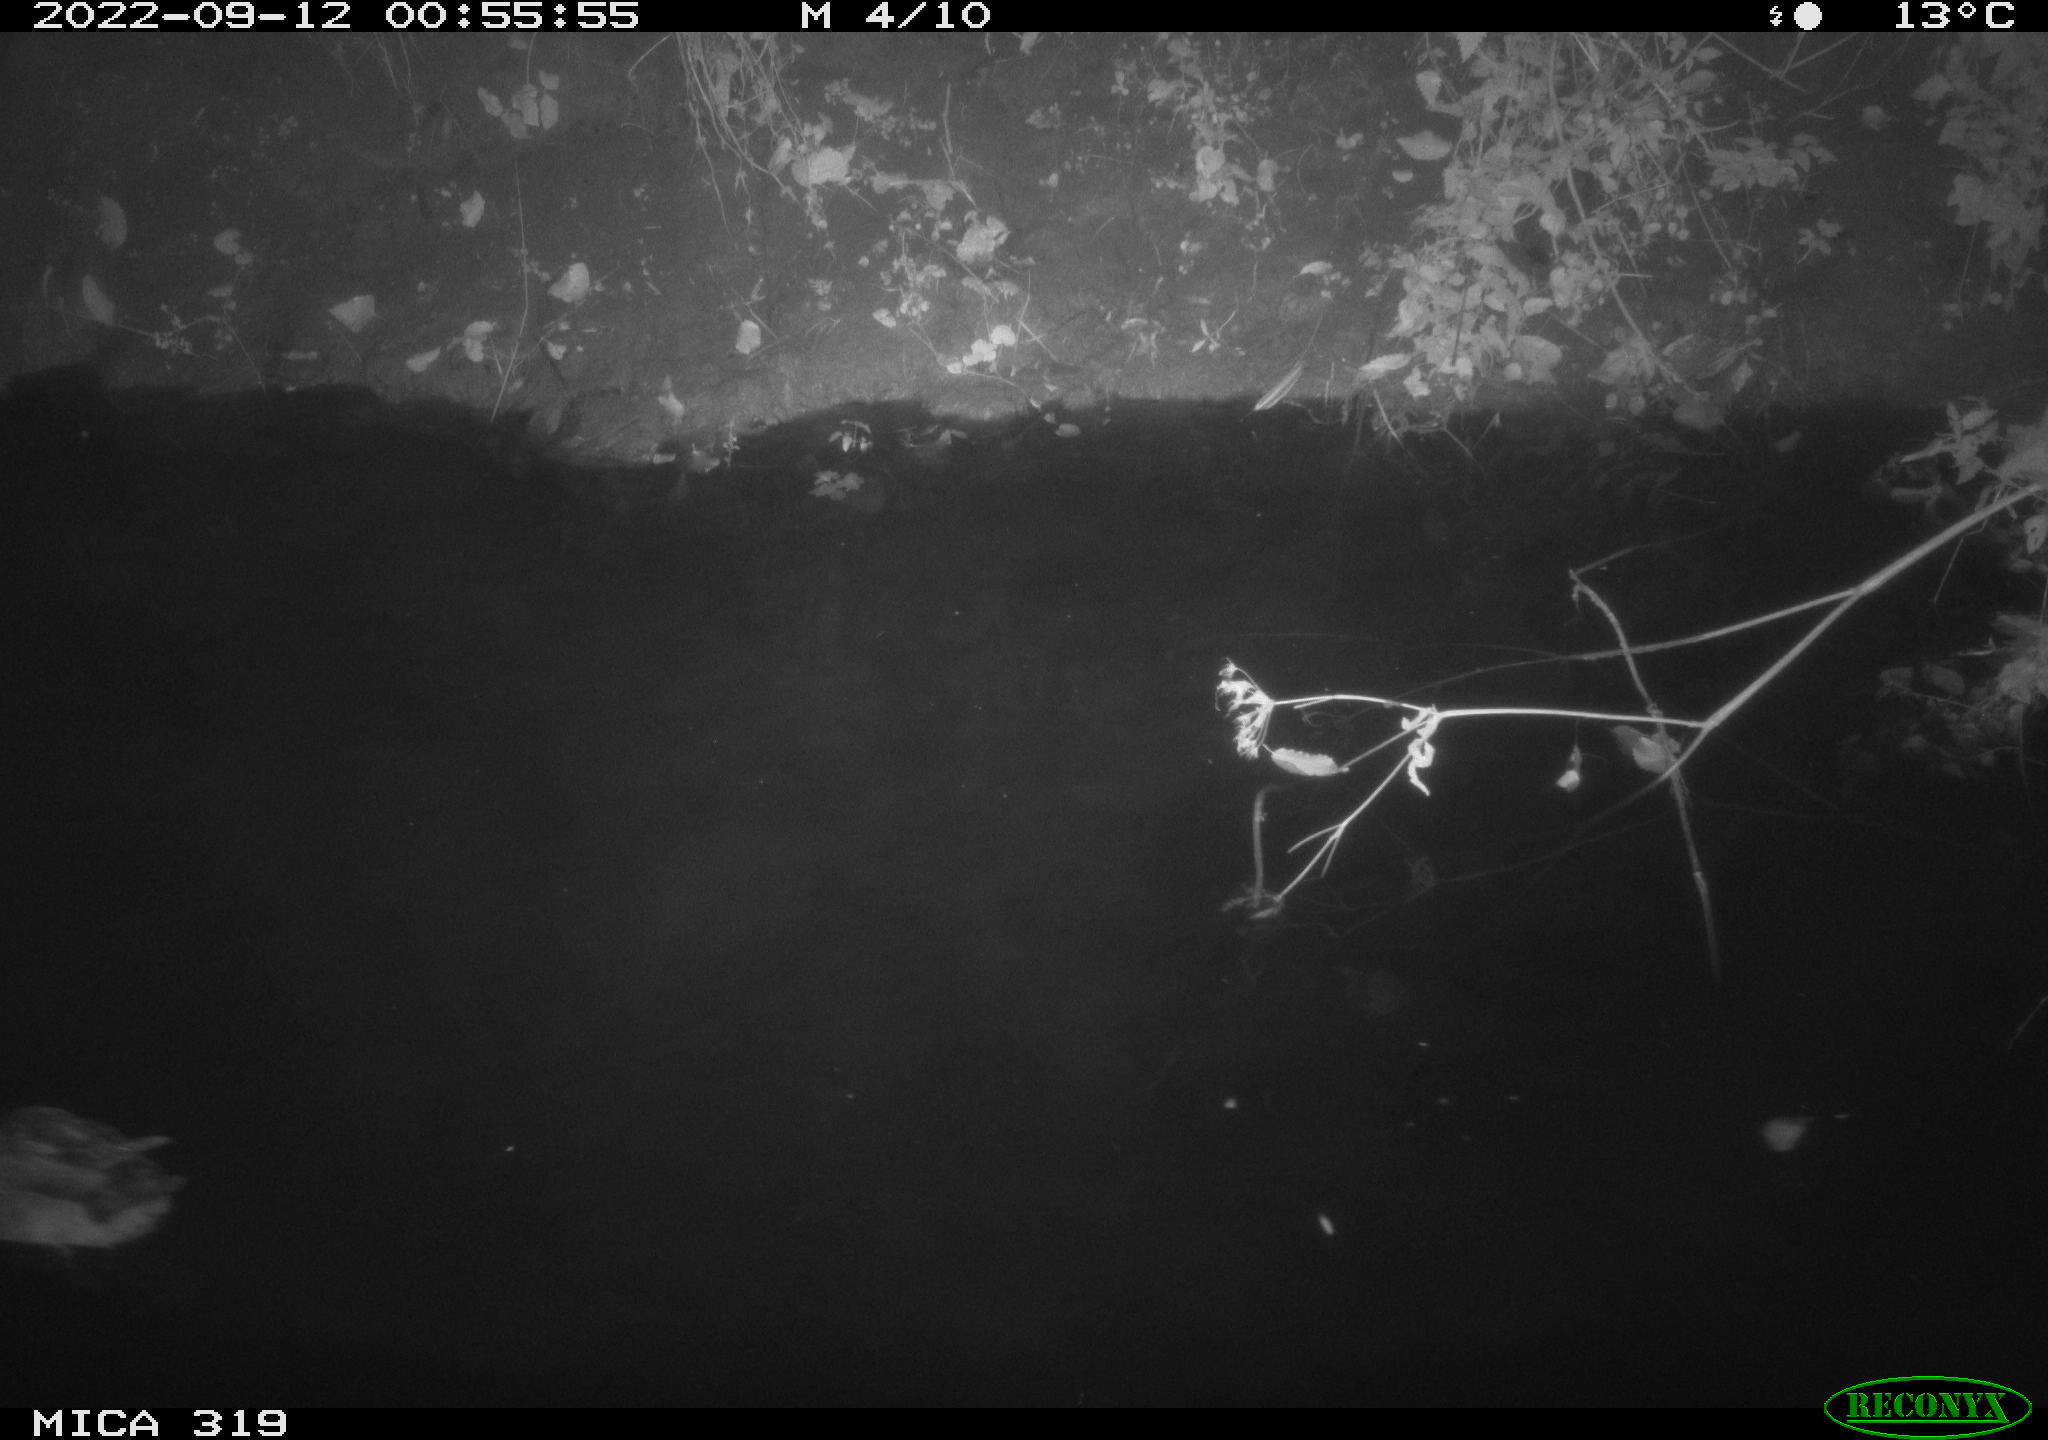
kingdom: Animalia
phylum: Chordata
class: Aves
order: Anseriformes
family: Anatidae
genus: Anas
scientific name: Anas
